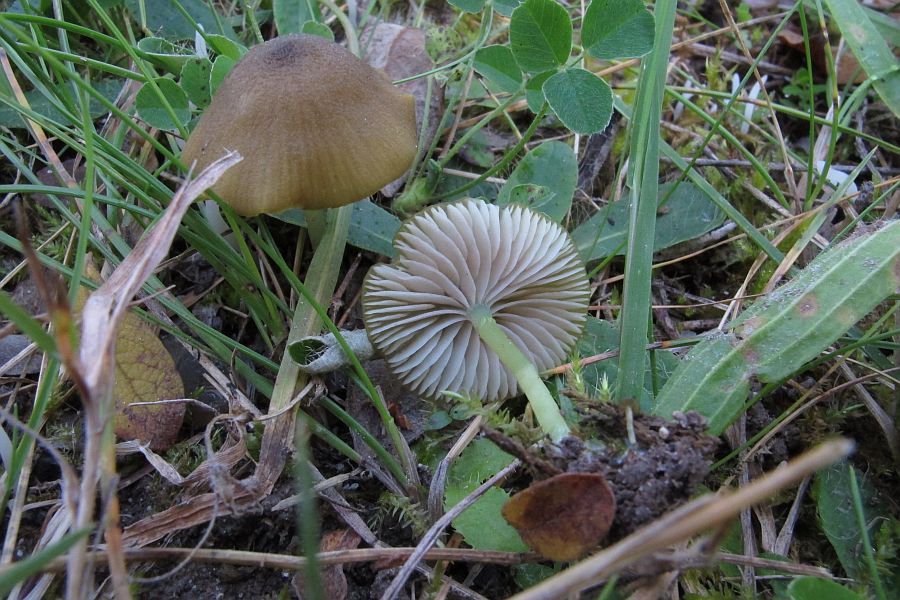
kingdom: Fungi
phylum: Basidiomycota
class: Agaricomycetes
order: Agaricales
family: Entolomataceae
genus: Entoloma
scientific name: Entoloma incanum
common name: grøngul rødblad
